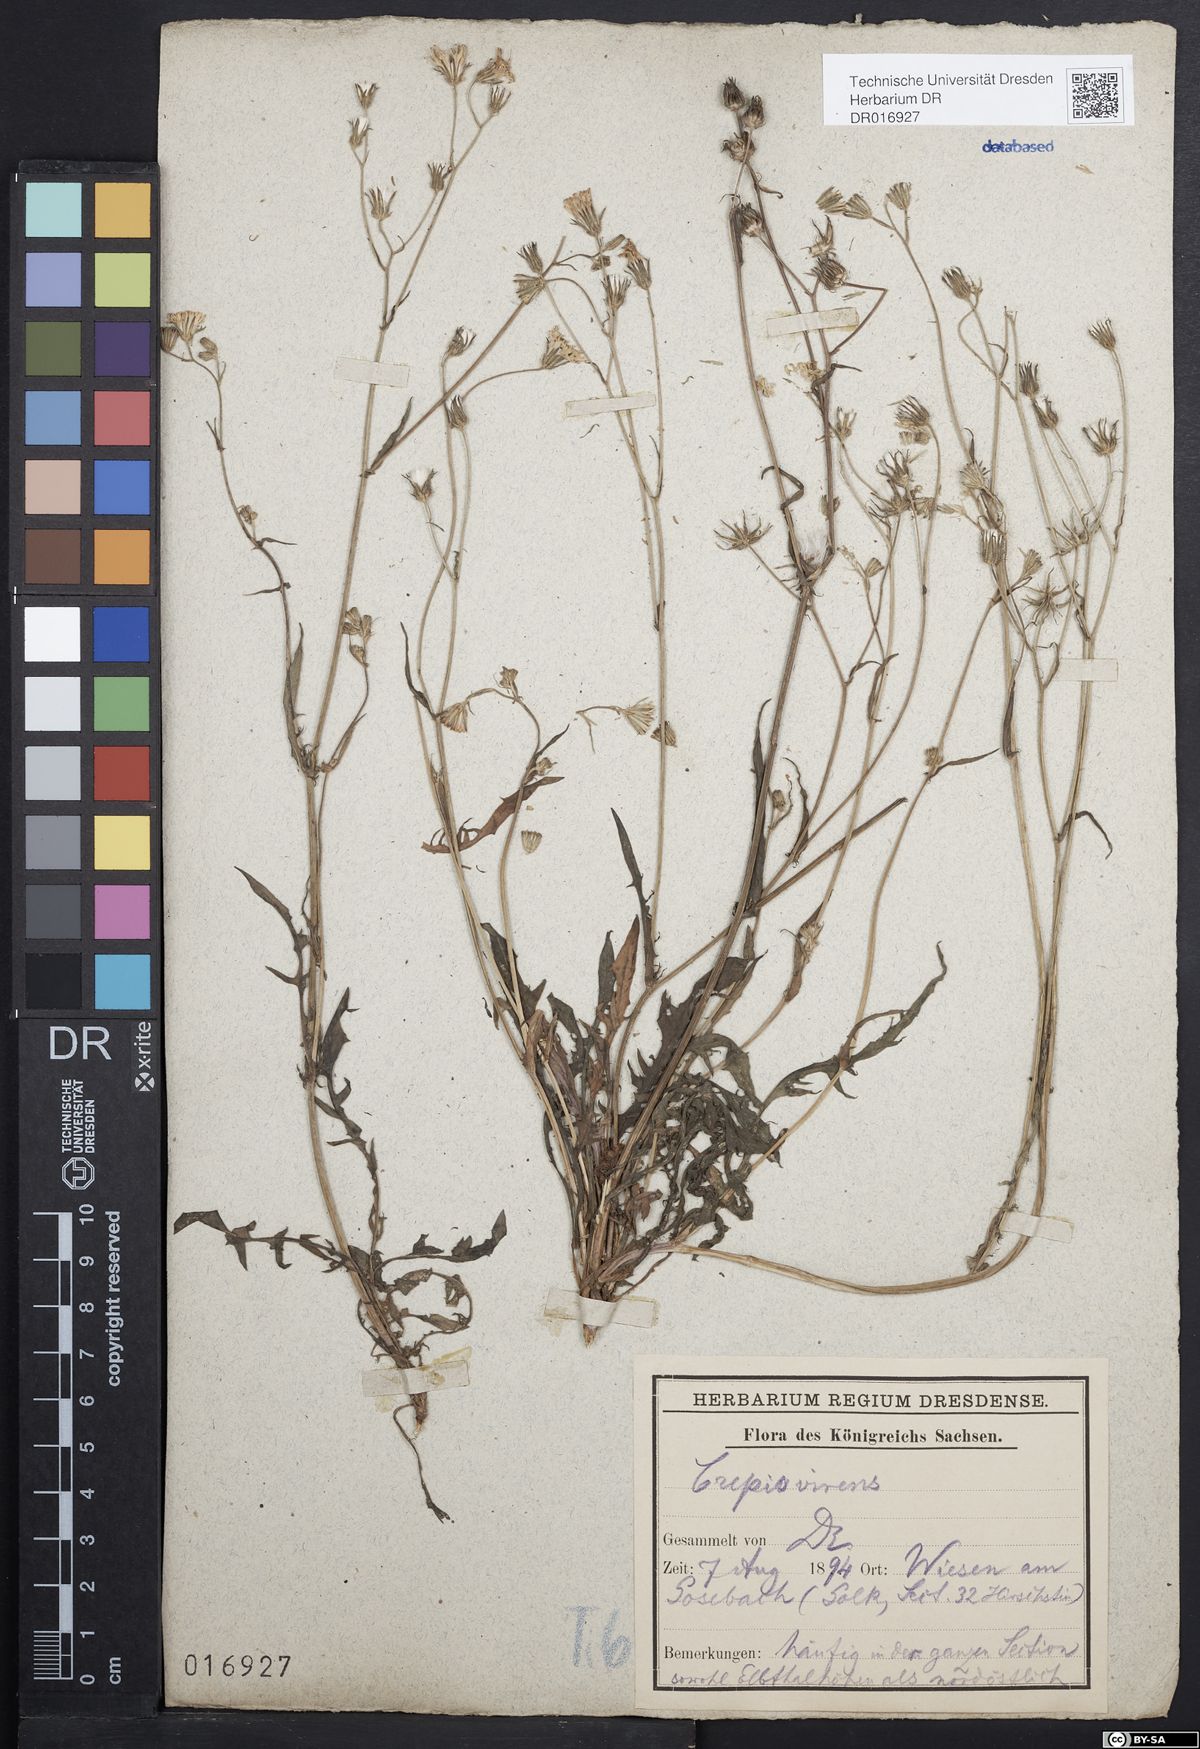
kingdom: Plantae
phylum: Tracheophyta
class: Magnoliopsida
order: Asterales
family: Asteraceae
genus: Crepis
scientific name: Crepis capillaris
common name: Smooth hawksbeard
